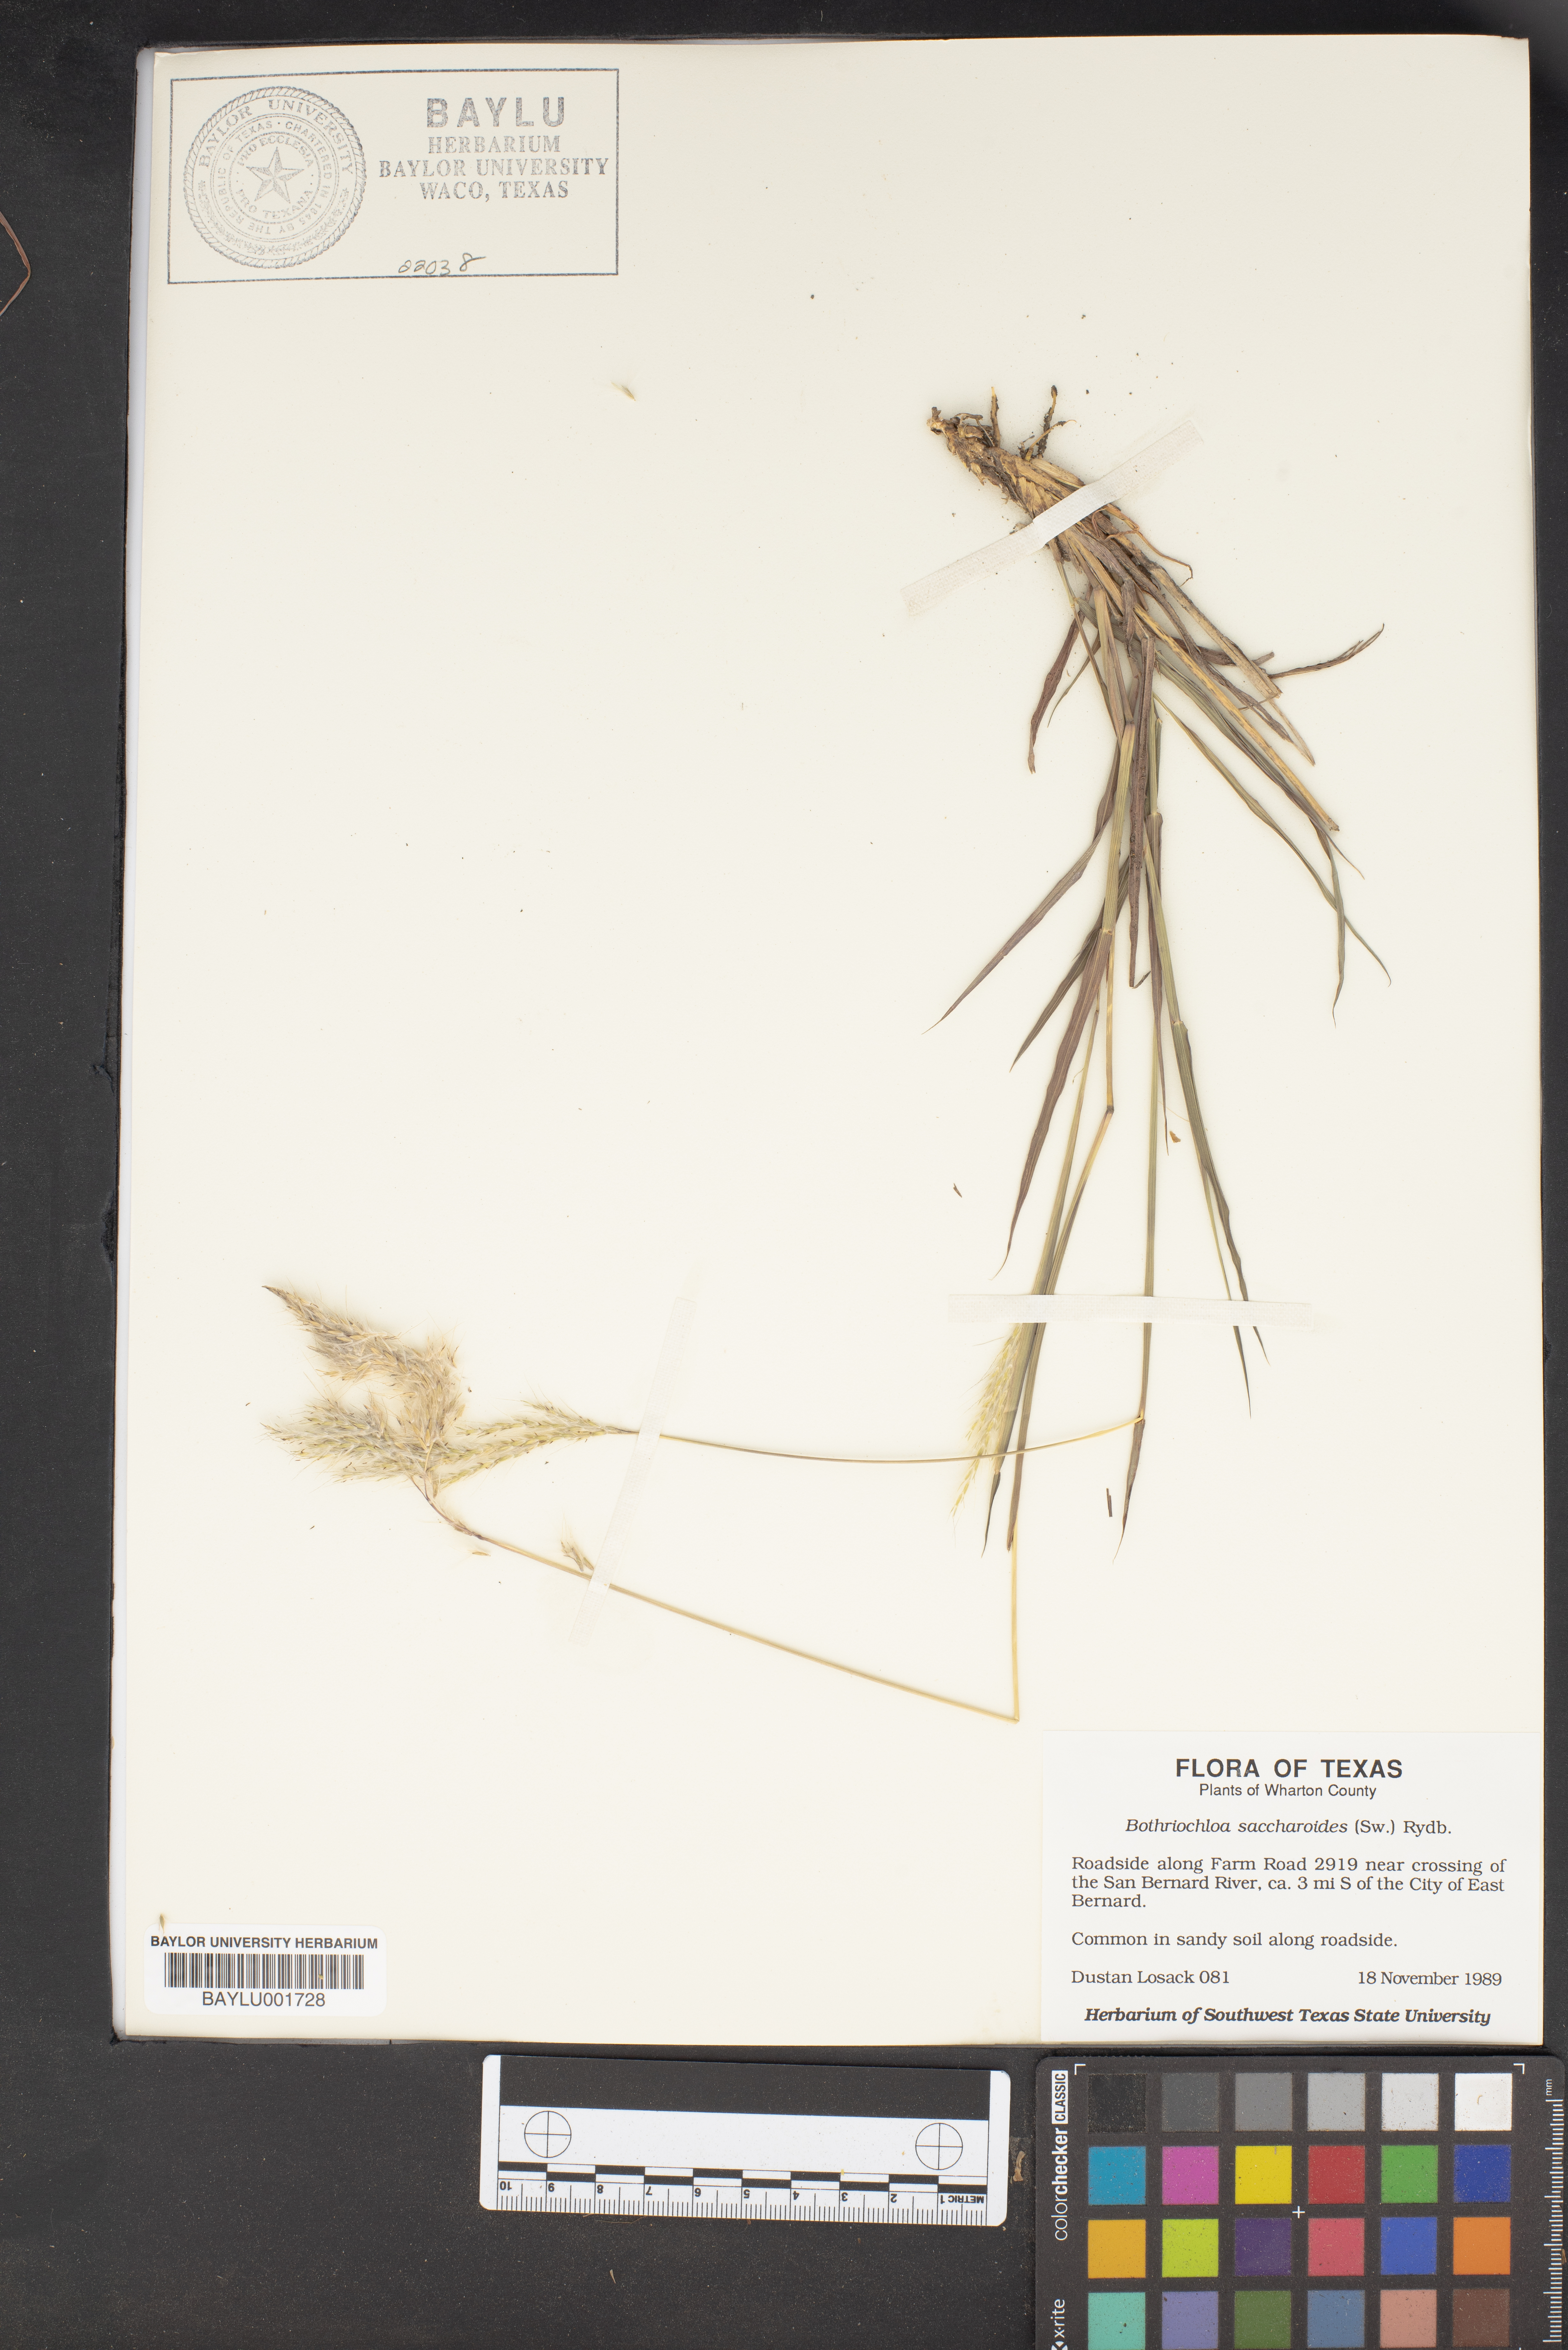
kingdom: Plantae
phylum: Tracheophyta
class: Liliopsida
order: Poales
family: Poaceae
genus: Bothriochloa
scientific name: Bothriochloa saccharoides
